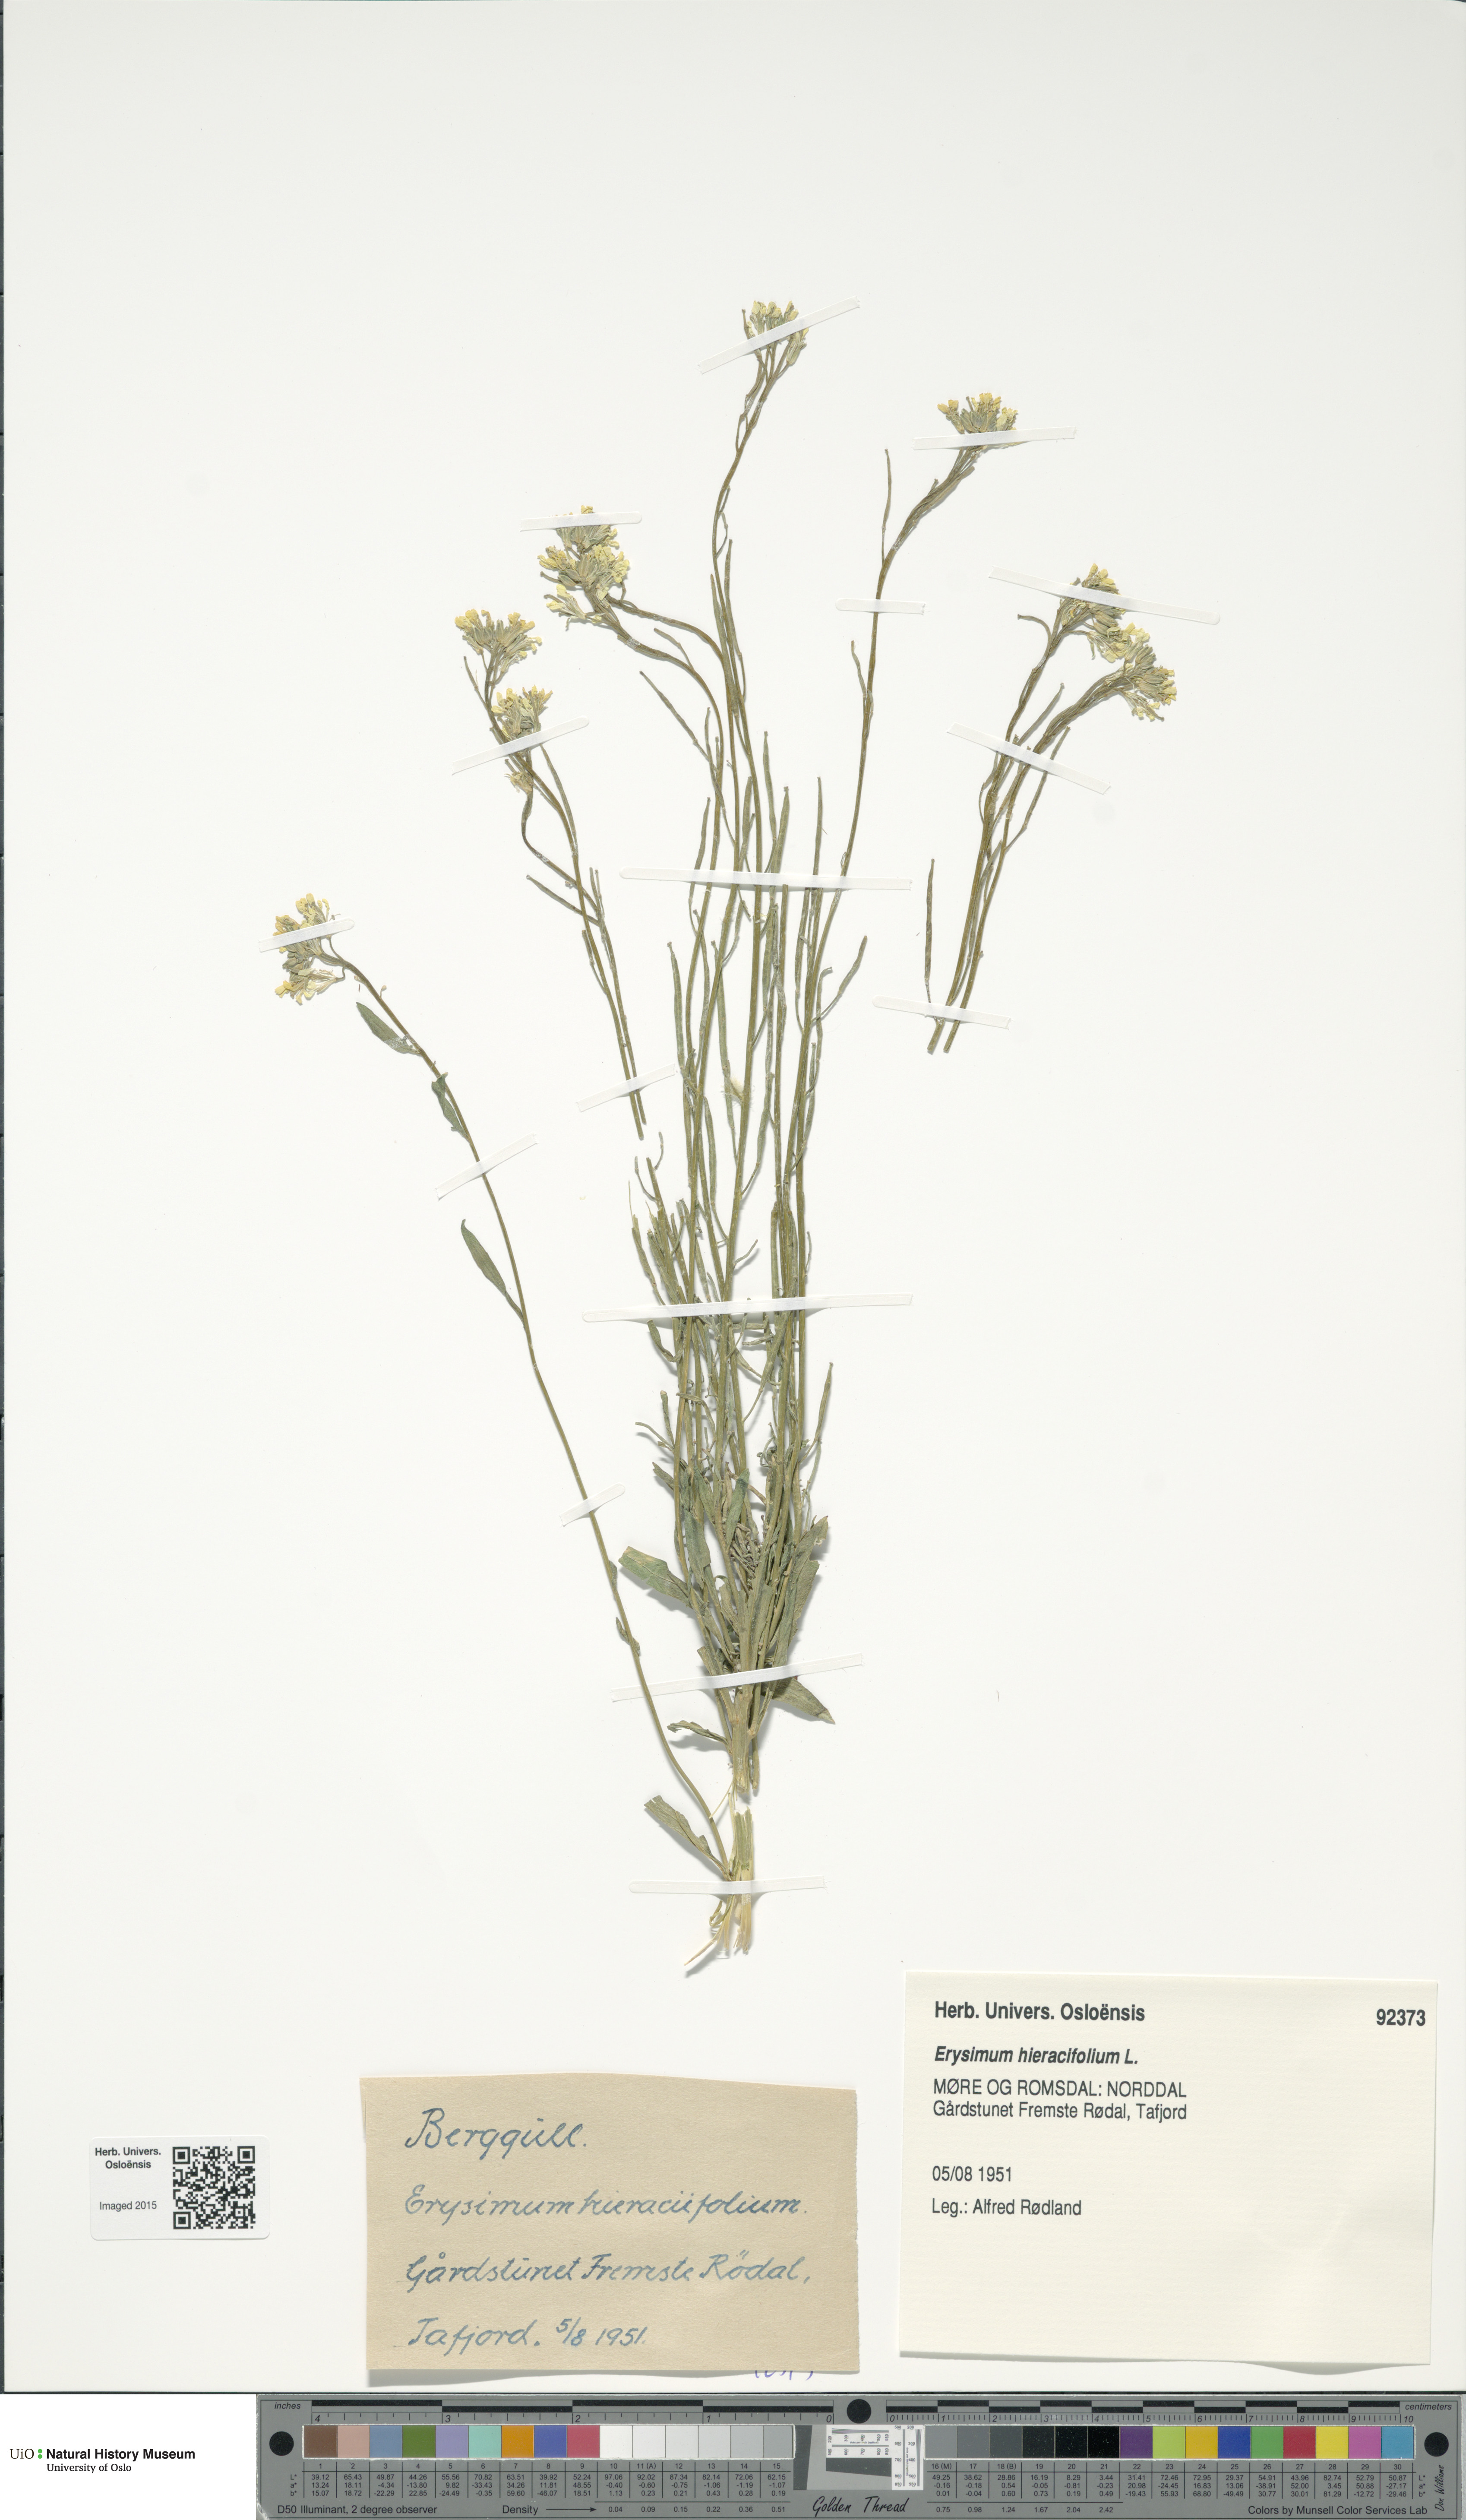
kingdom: Plantae
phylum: Tracheophyta
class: Magnoliopsida
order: Brassicales
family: Brassicaceae
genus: Erysimum
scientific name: Erysimum hieraciifolium
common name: European wallflower
